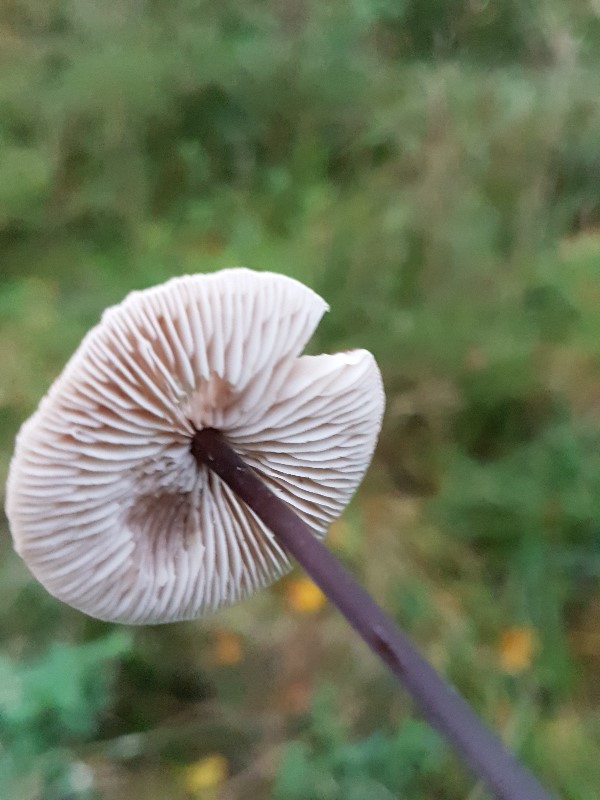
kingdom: Fungi
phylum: Basidiomycota
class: Agaricomycetes
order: Agaricales
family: Omphalotaceae
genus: Mycetinis
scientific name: Mycetinis alliaceus
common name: stor løghat
